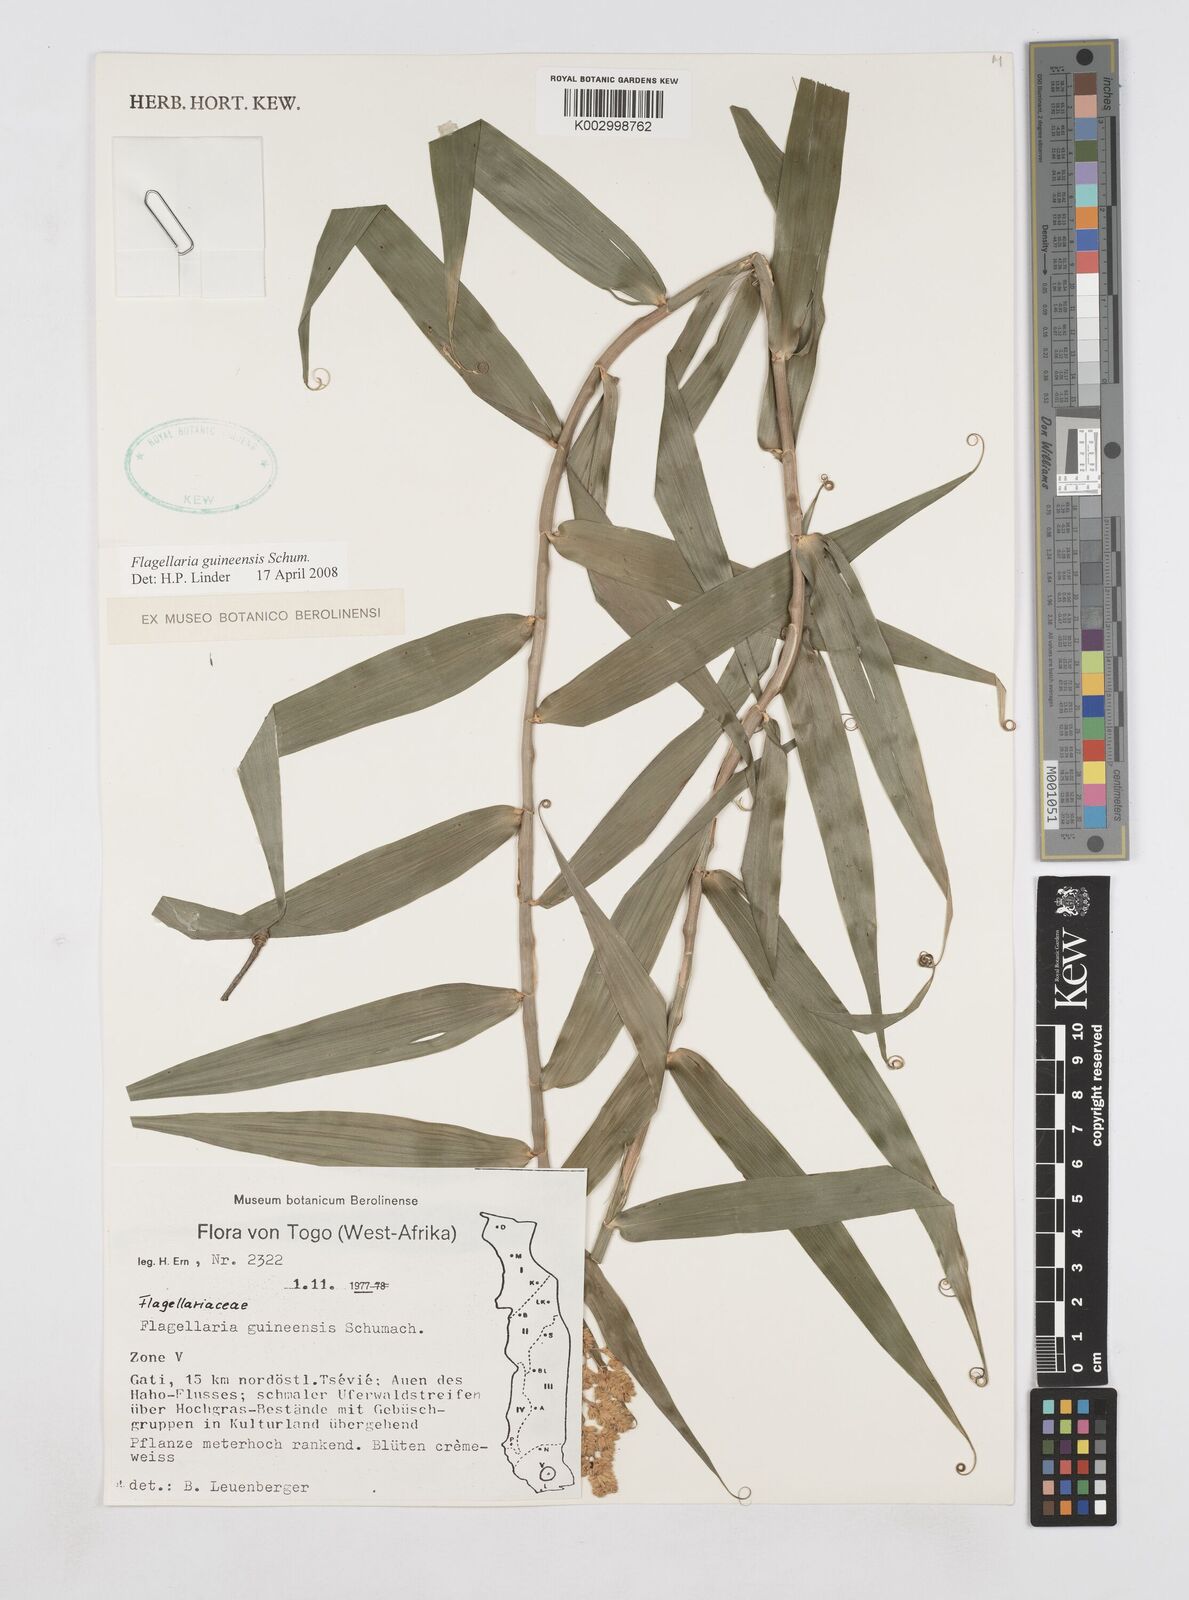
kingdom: Plantae
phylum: Tracheophyta
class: Liliopsida
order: Poales
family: Flagellariaceae
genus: Flagellaria
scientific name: Flagellaria guineensis
